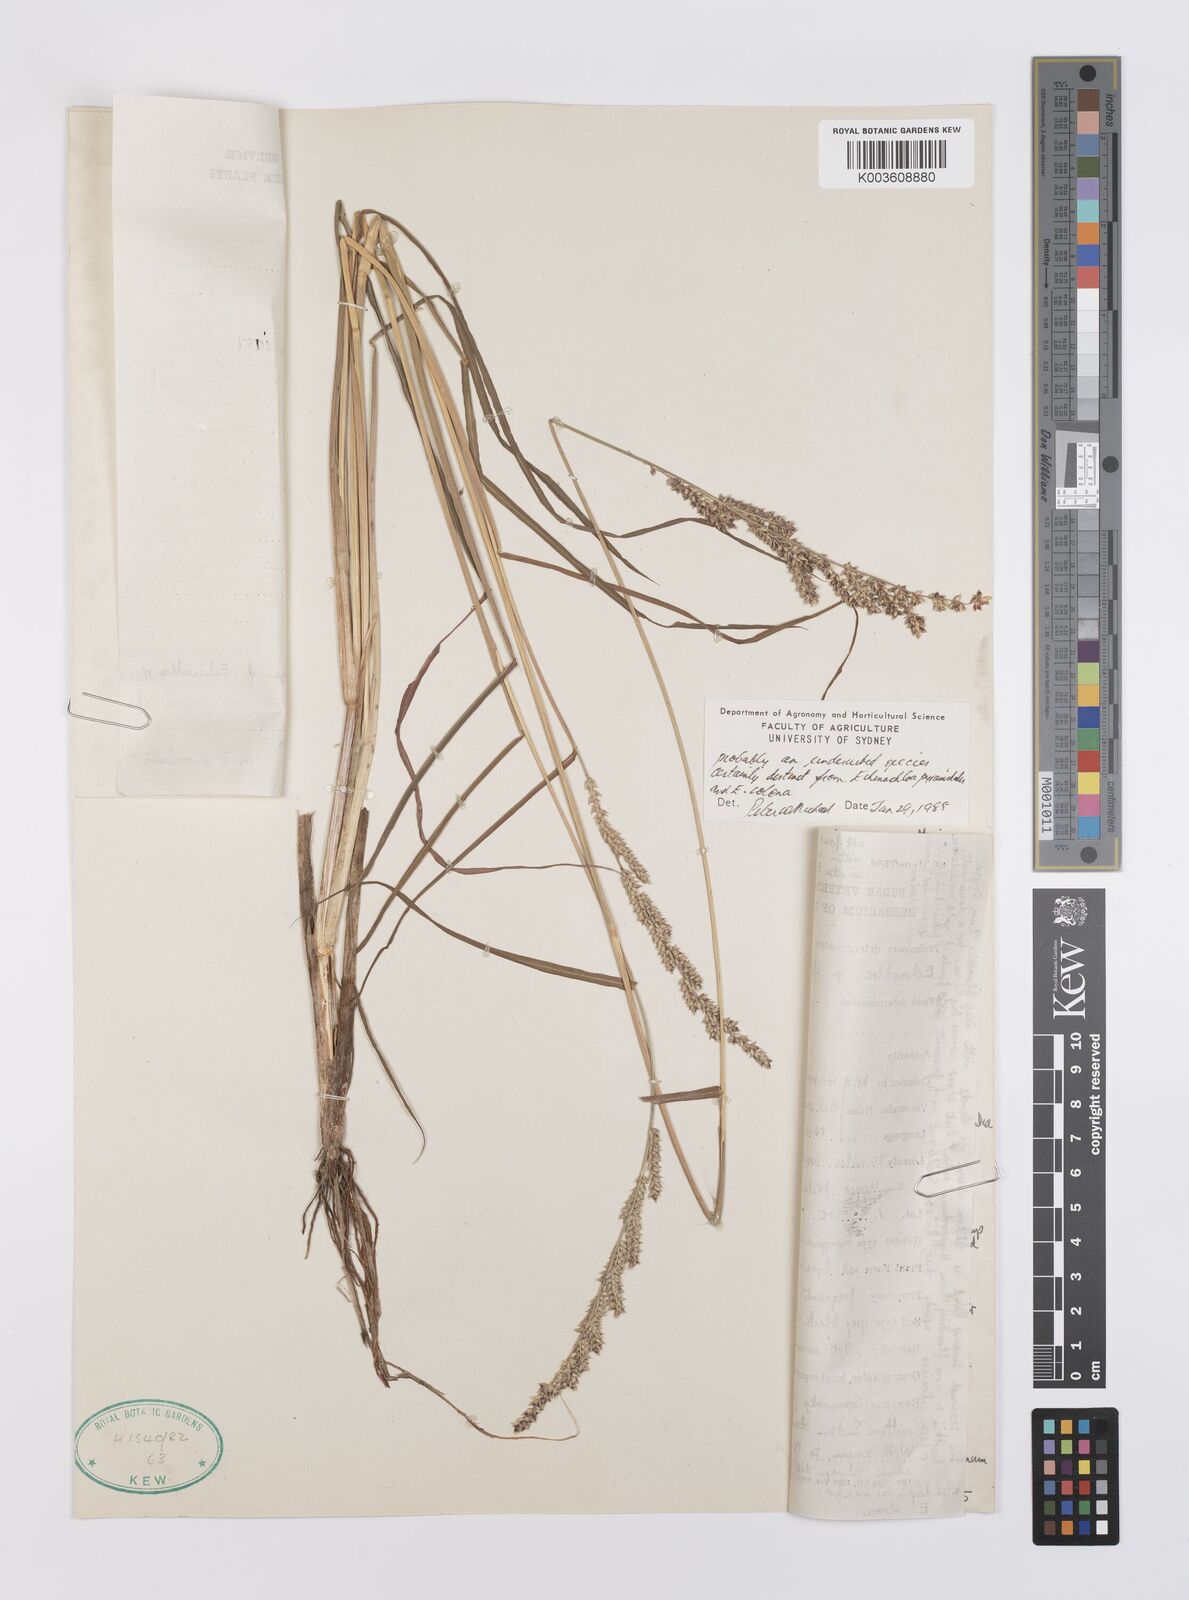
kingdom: Plantae
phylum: Tracheophyta
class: Liliopsida
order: Poales
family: Poaceae
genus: Echinochloa
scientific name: Echinochloa colonum
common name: Jungle rice
